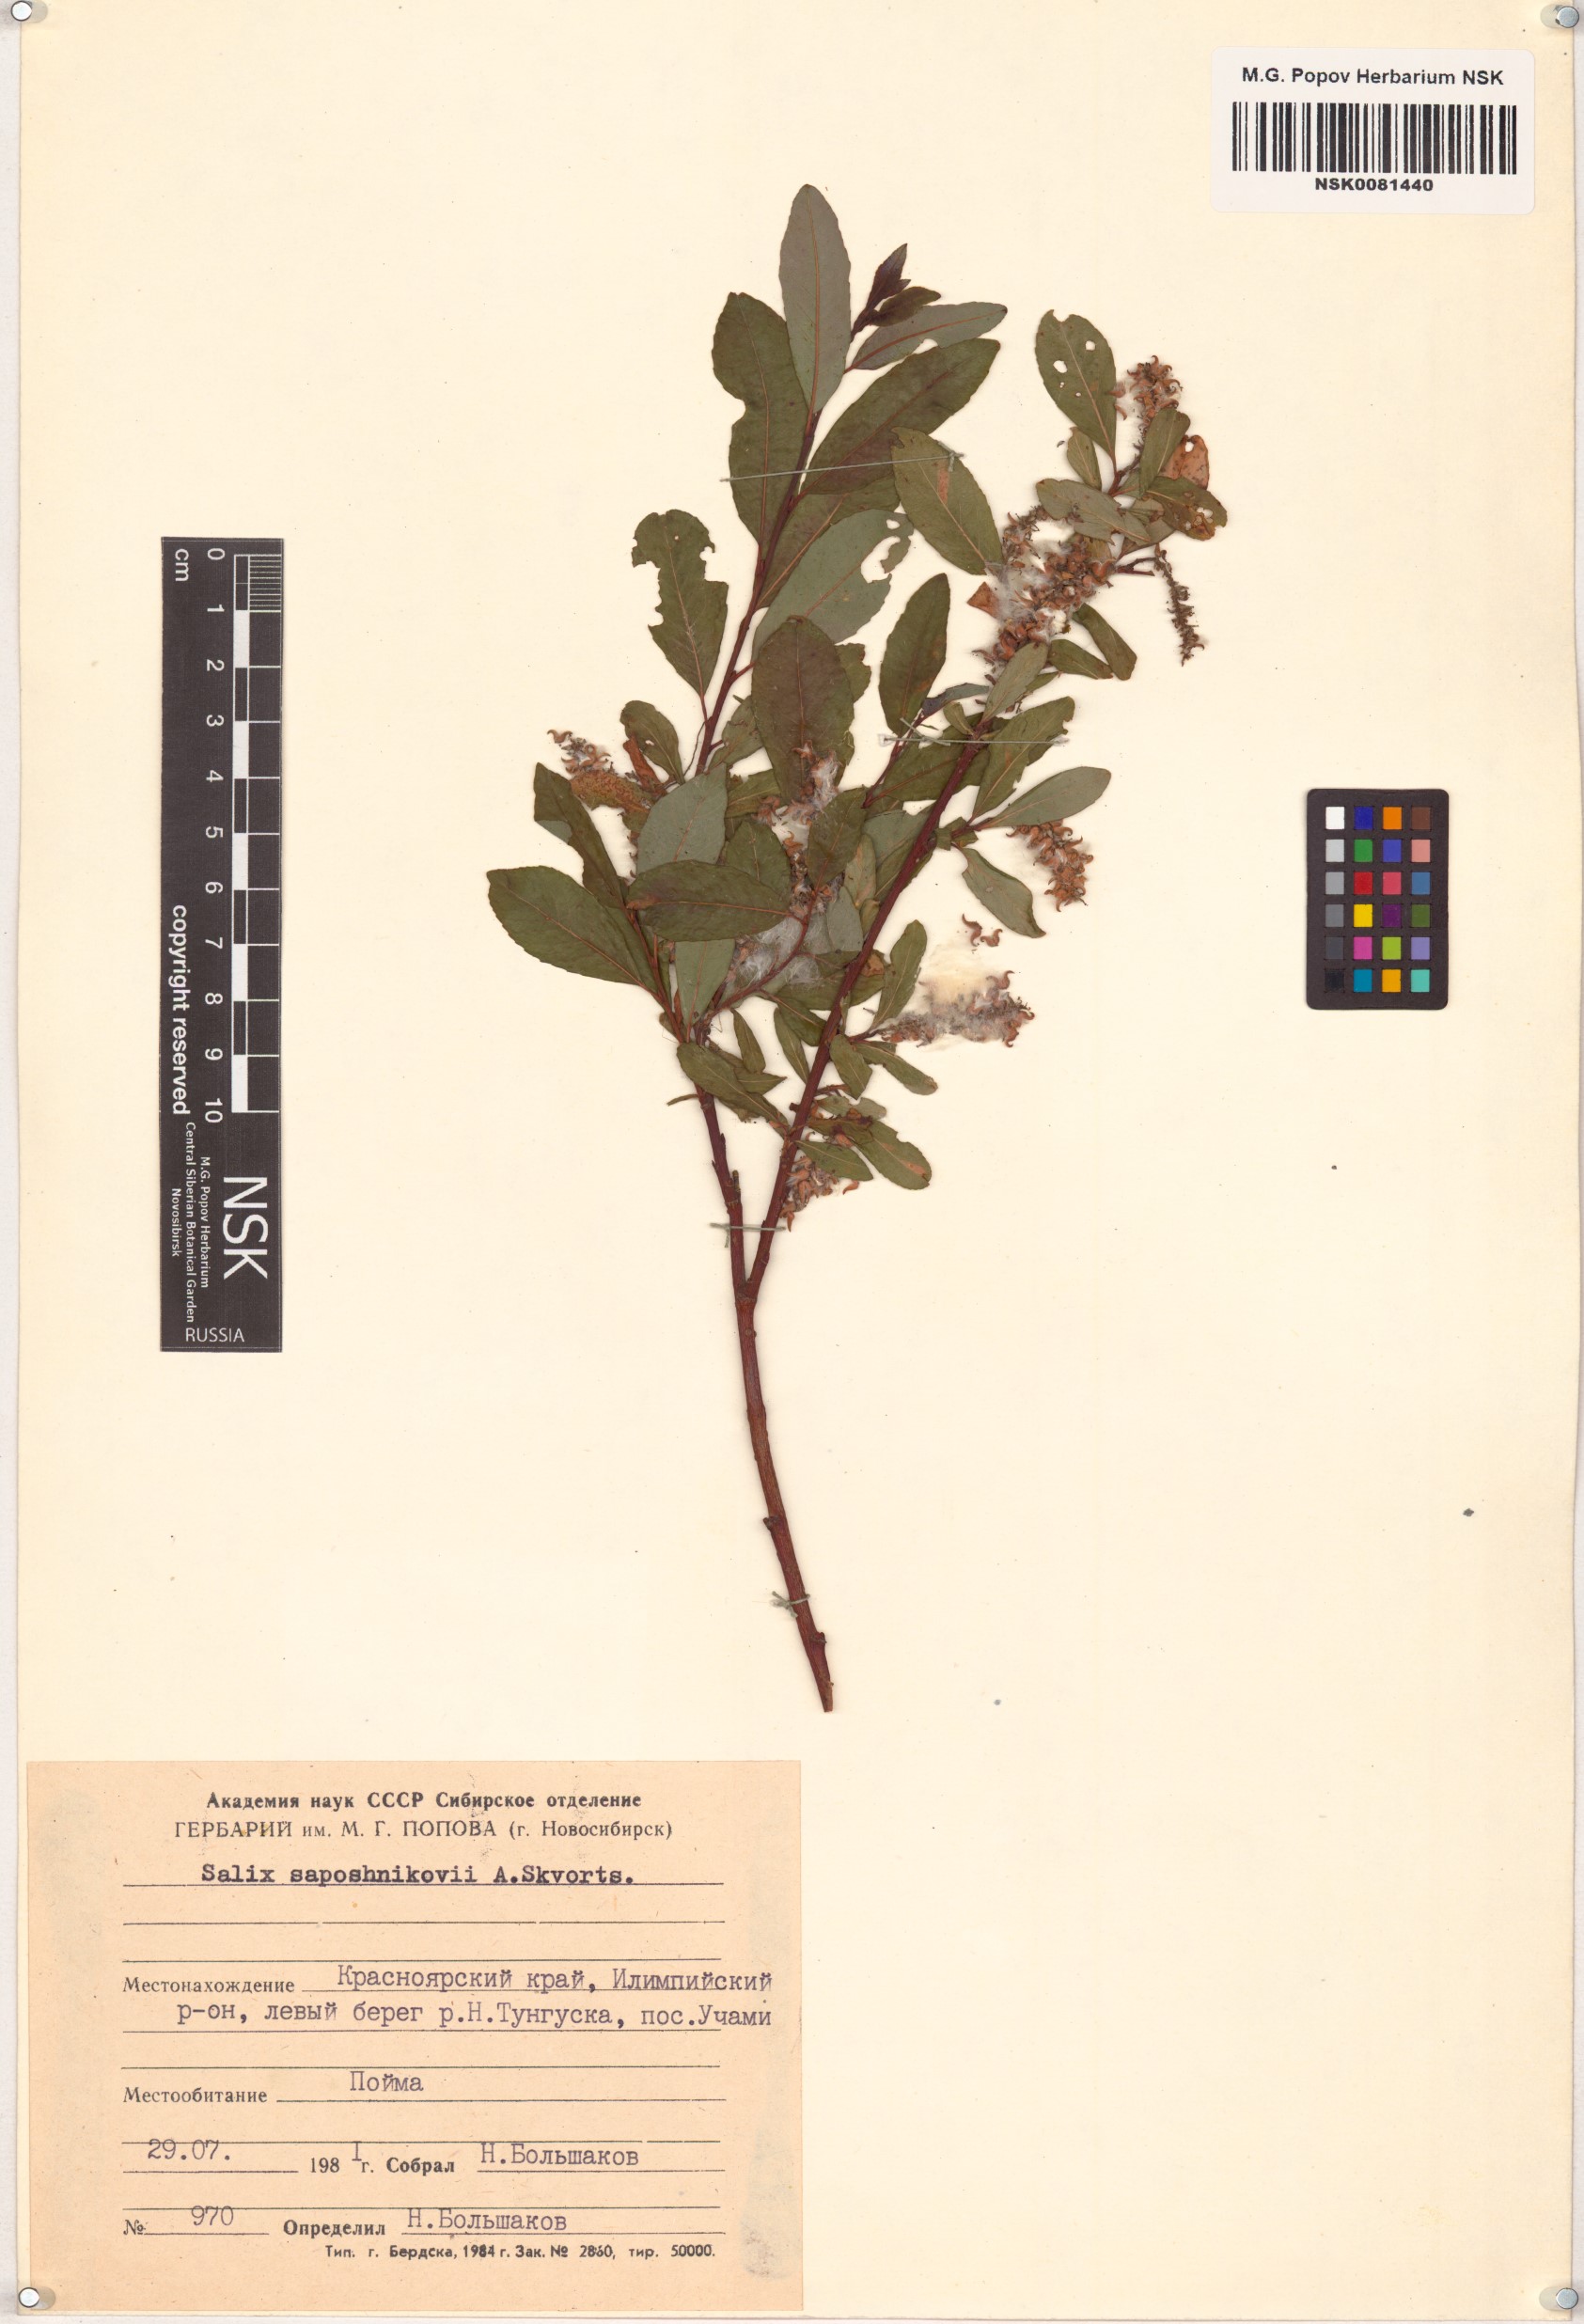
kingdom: Plantae
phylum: Tracheophyta
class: Magnoliopsida
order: Malpighiales
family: Salicaceae
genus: Salix
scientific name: Salix saposhnikovii
